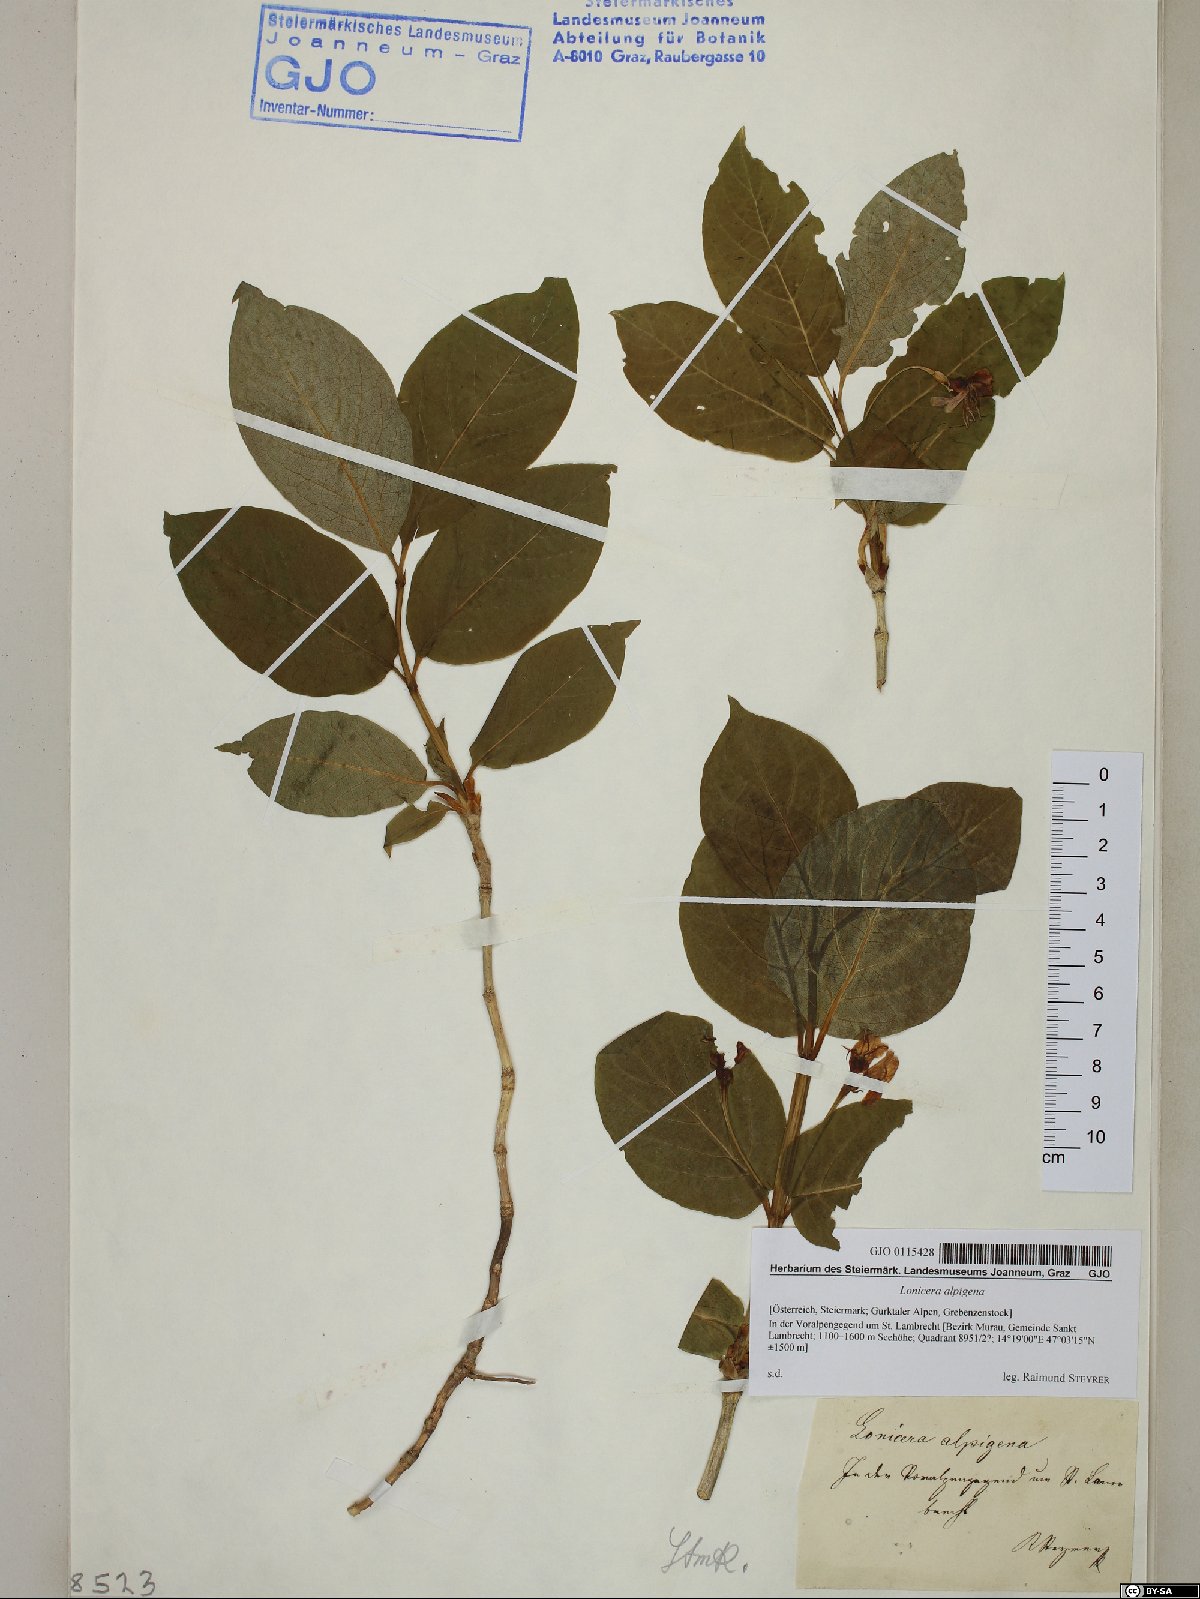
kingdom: Plantae
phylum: Tracheophyta
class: Magnoliopsida
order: Dipsacales
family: Caprifoliaceae
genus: Lonicera
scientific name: Lonicera alpigena
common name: Alpine honeysuckle
